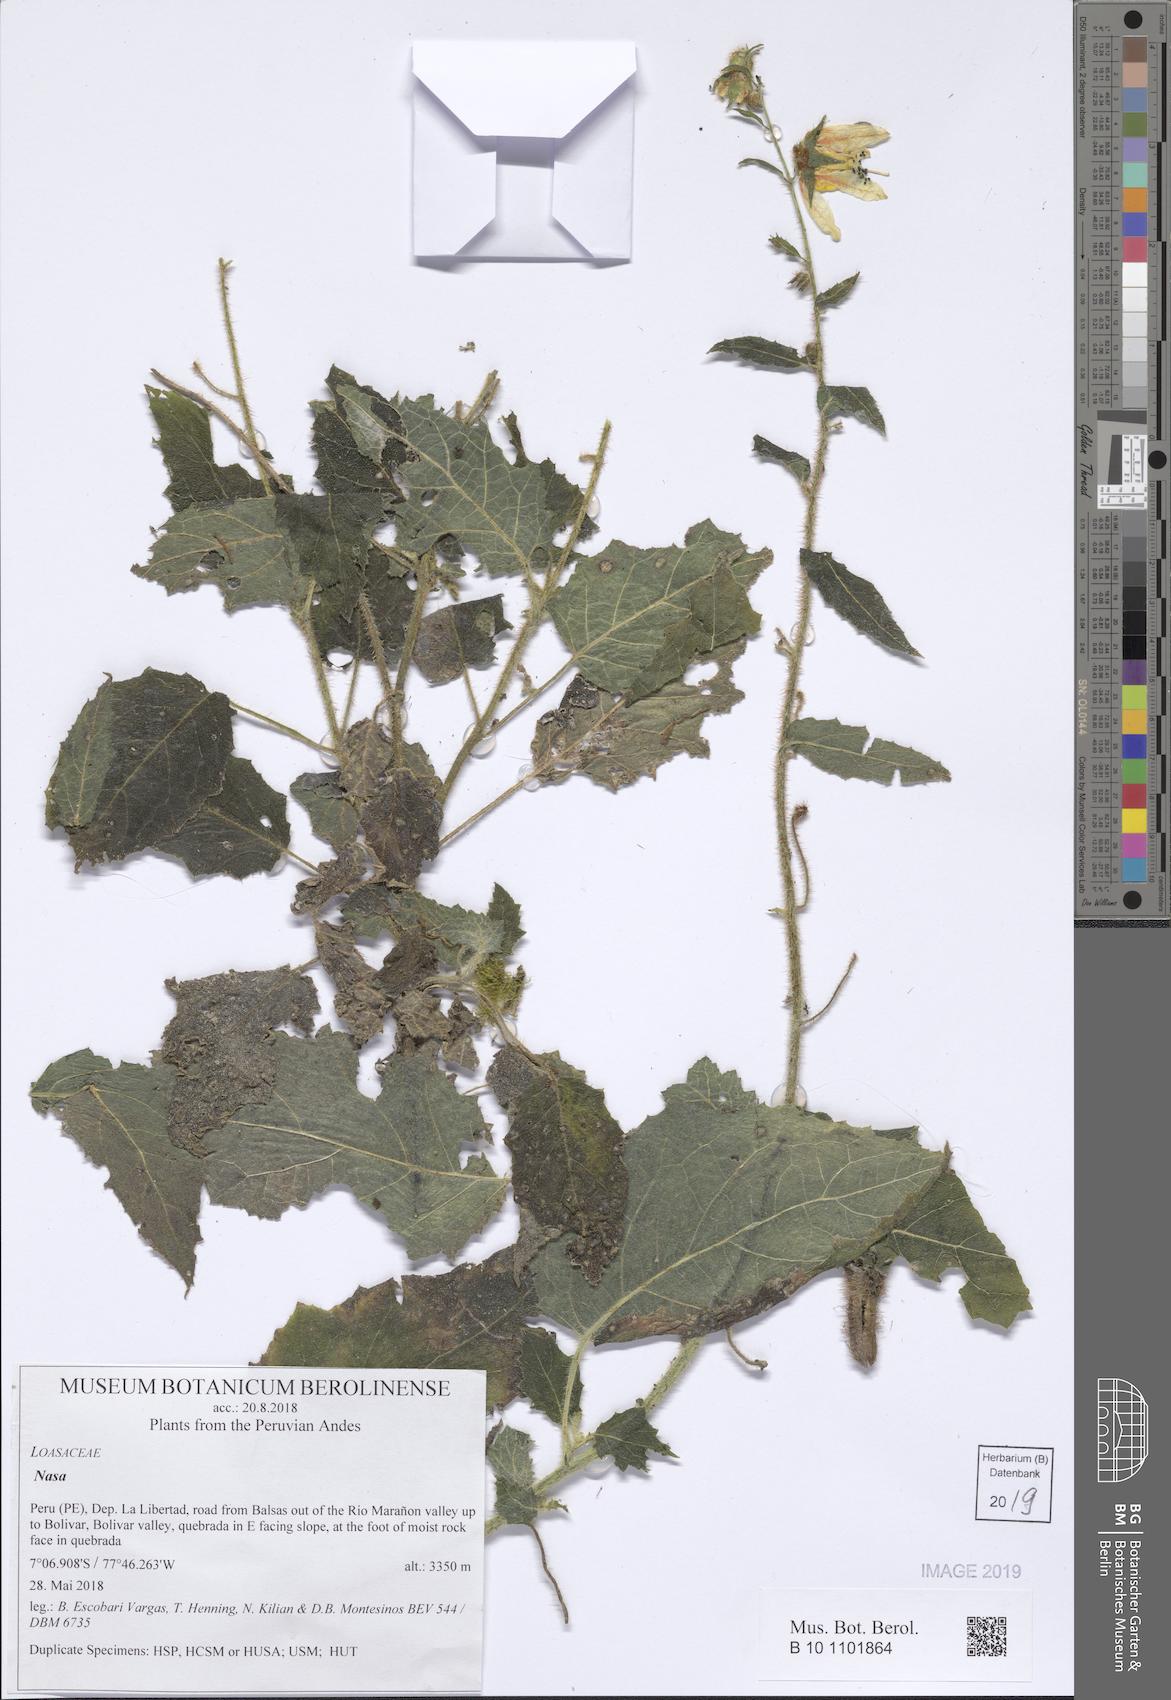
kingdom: Plantae
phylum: Tracheophyta
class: Magnoliopsida
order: Cornales
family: Loasaceae
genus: Nasa
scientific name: Nasa stolonifera
